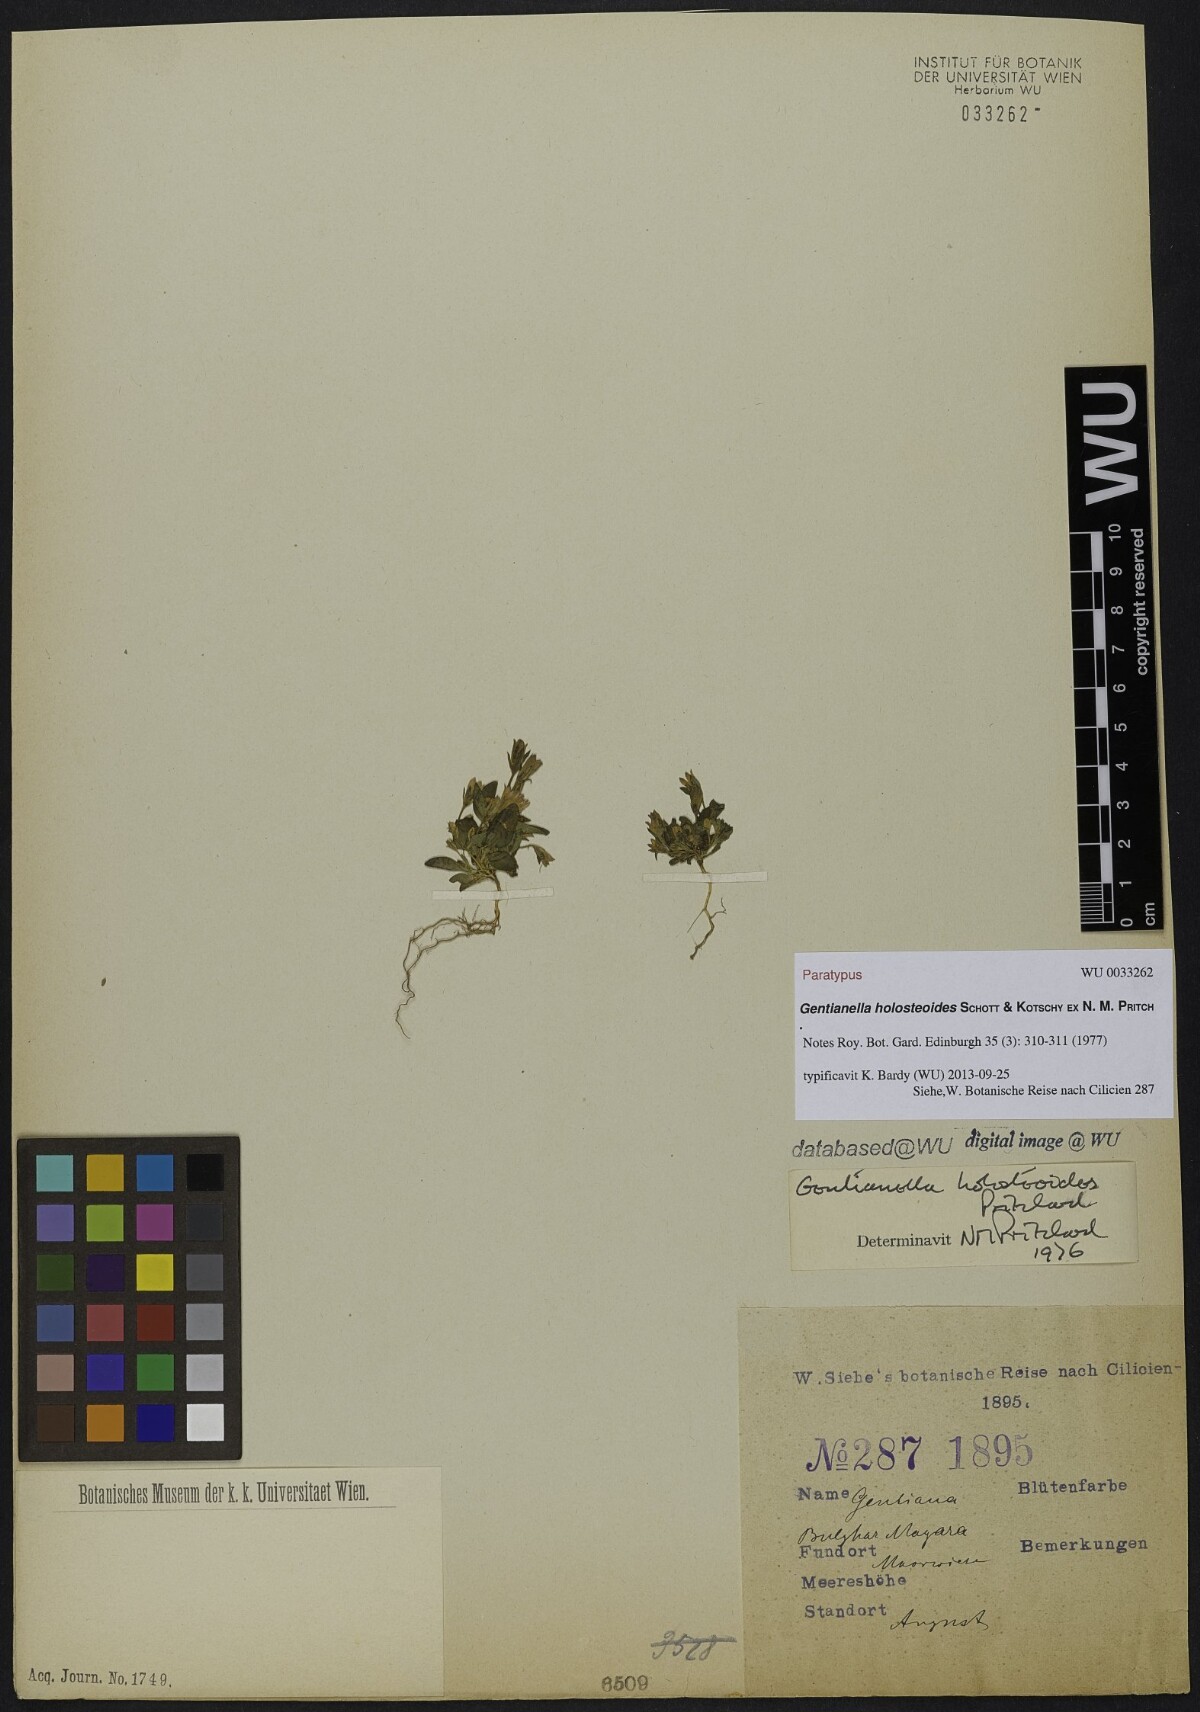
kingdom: Plantae
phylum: Tracheophyta
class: Magnoliopsida
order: Gentianales
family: Gentianaceae
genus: Gentianella
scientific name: Gentianella holosteoides
